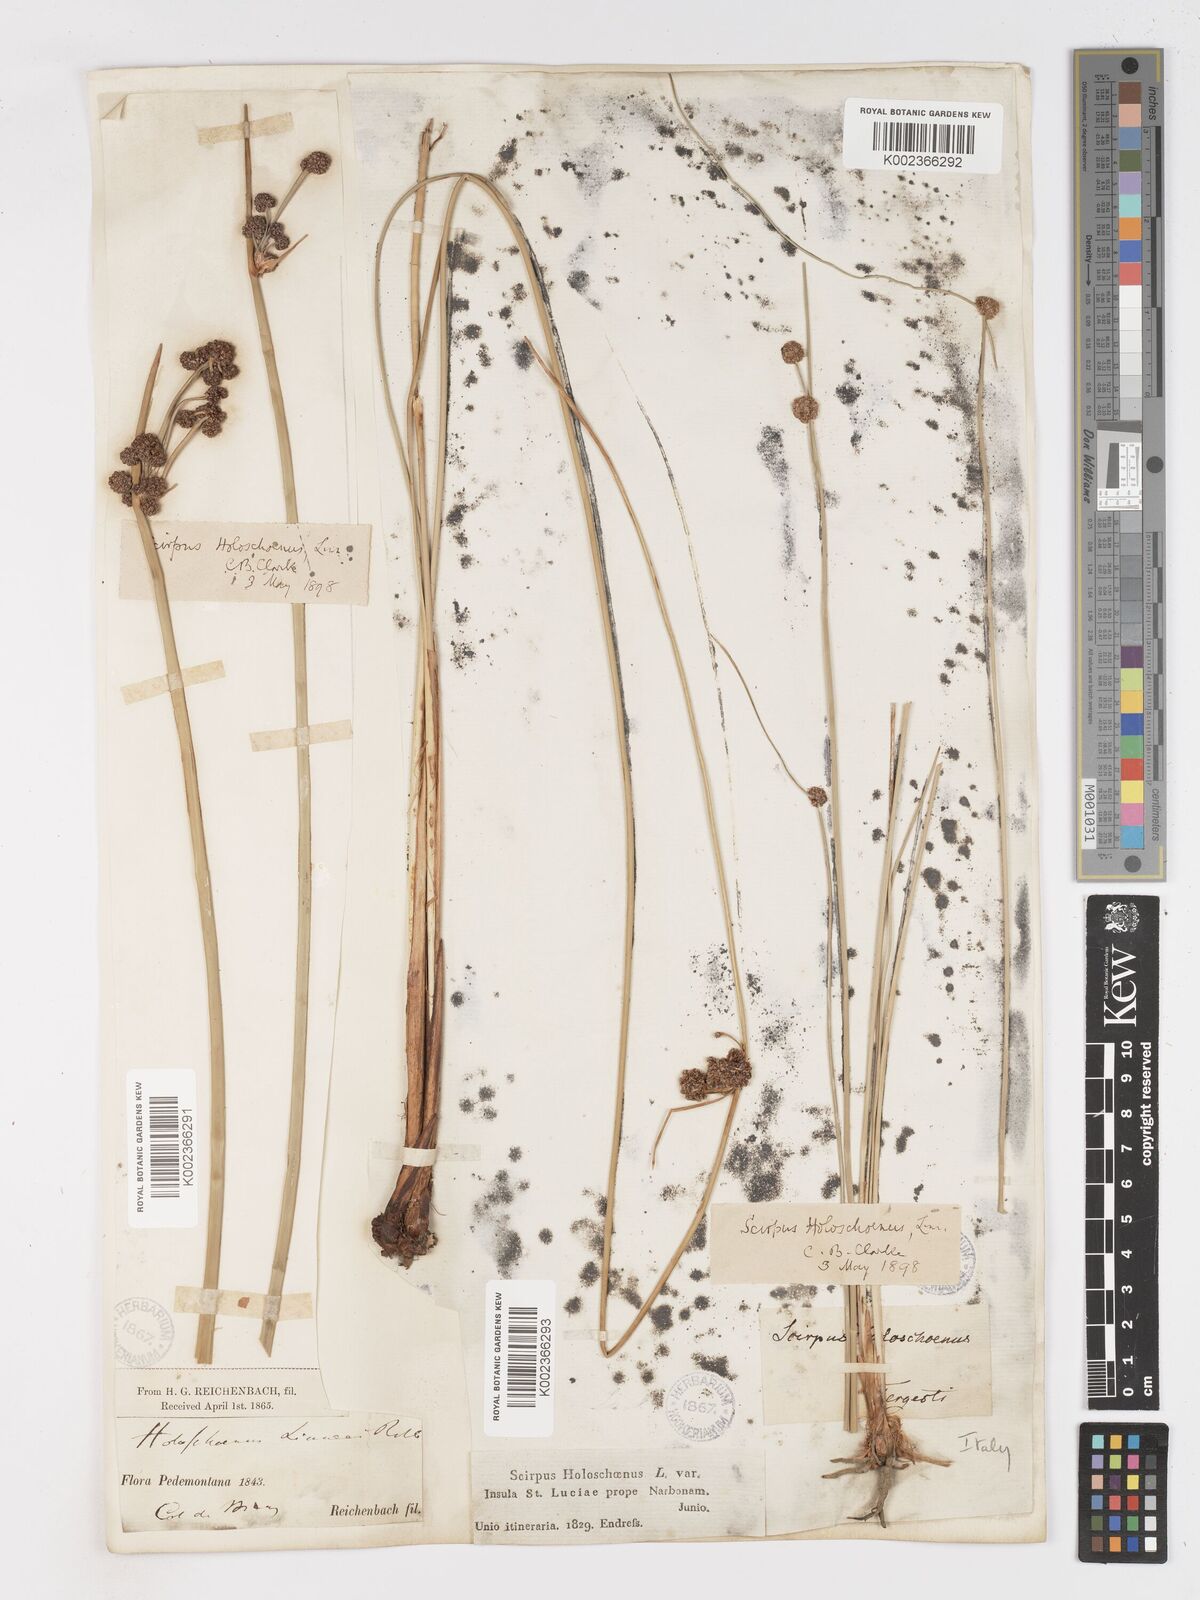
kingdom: Plantae
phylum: Tracheophyta
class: Liliopsida
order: Poales
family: Cyperaceae
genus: Scirpoides
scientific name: Scirpoides holoschoenus
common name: Round-headed club-rush
